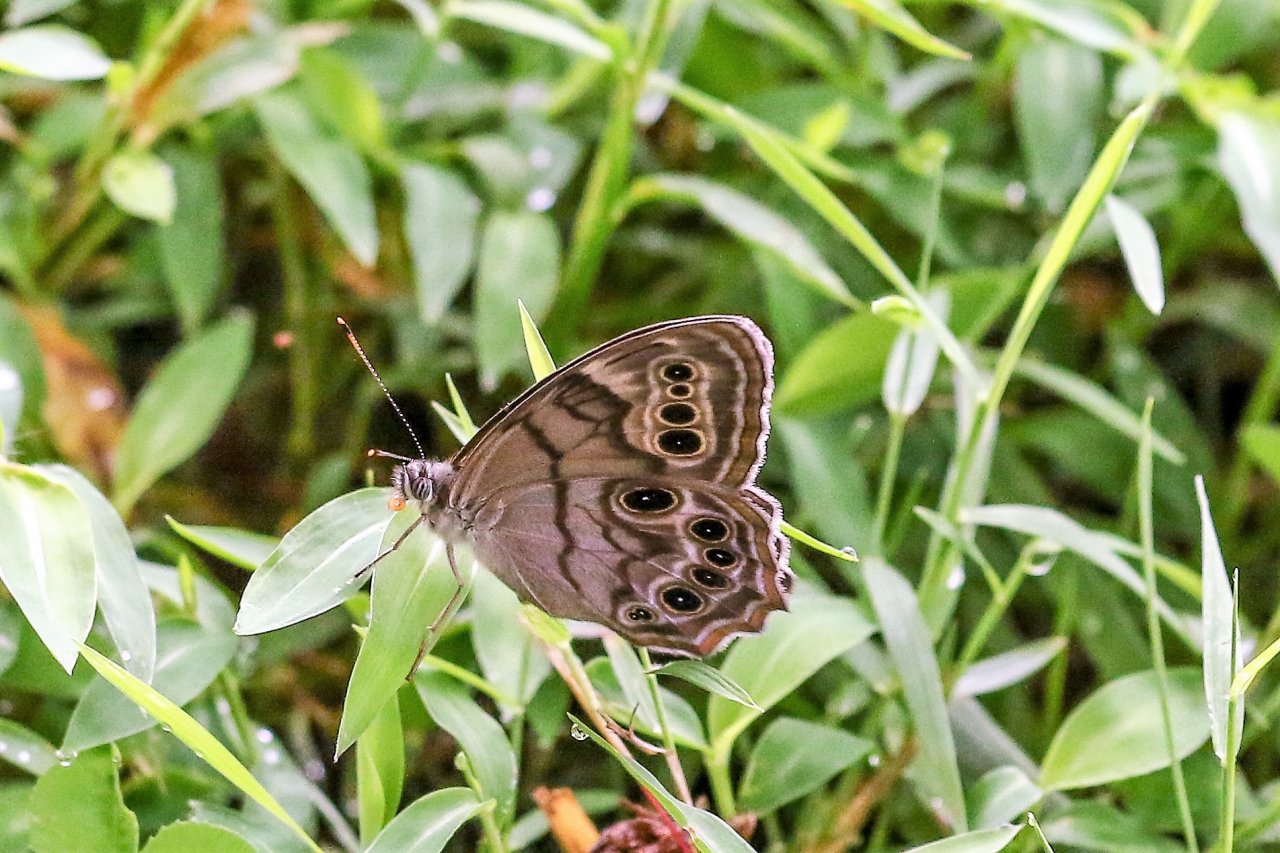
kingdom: Animalia
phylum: Arthropoda
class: Insecta
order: Lepidoptera
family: Nymphalidae
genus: Lethe
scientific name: Lethe anthedon
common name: Northern Pearly-Eye
